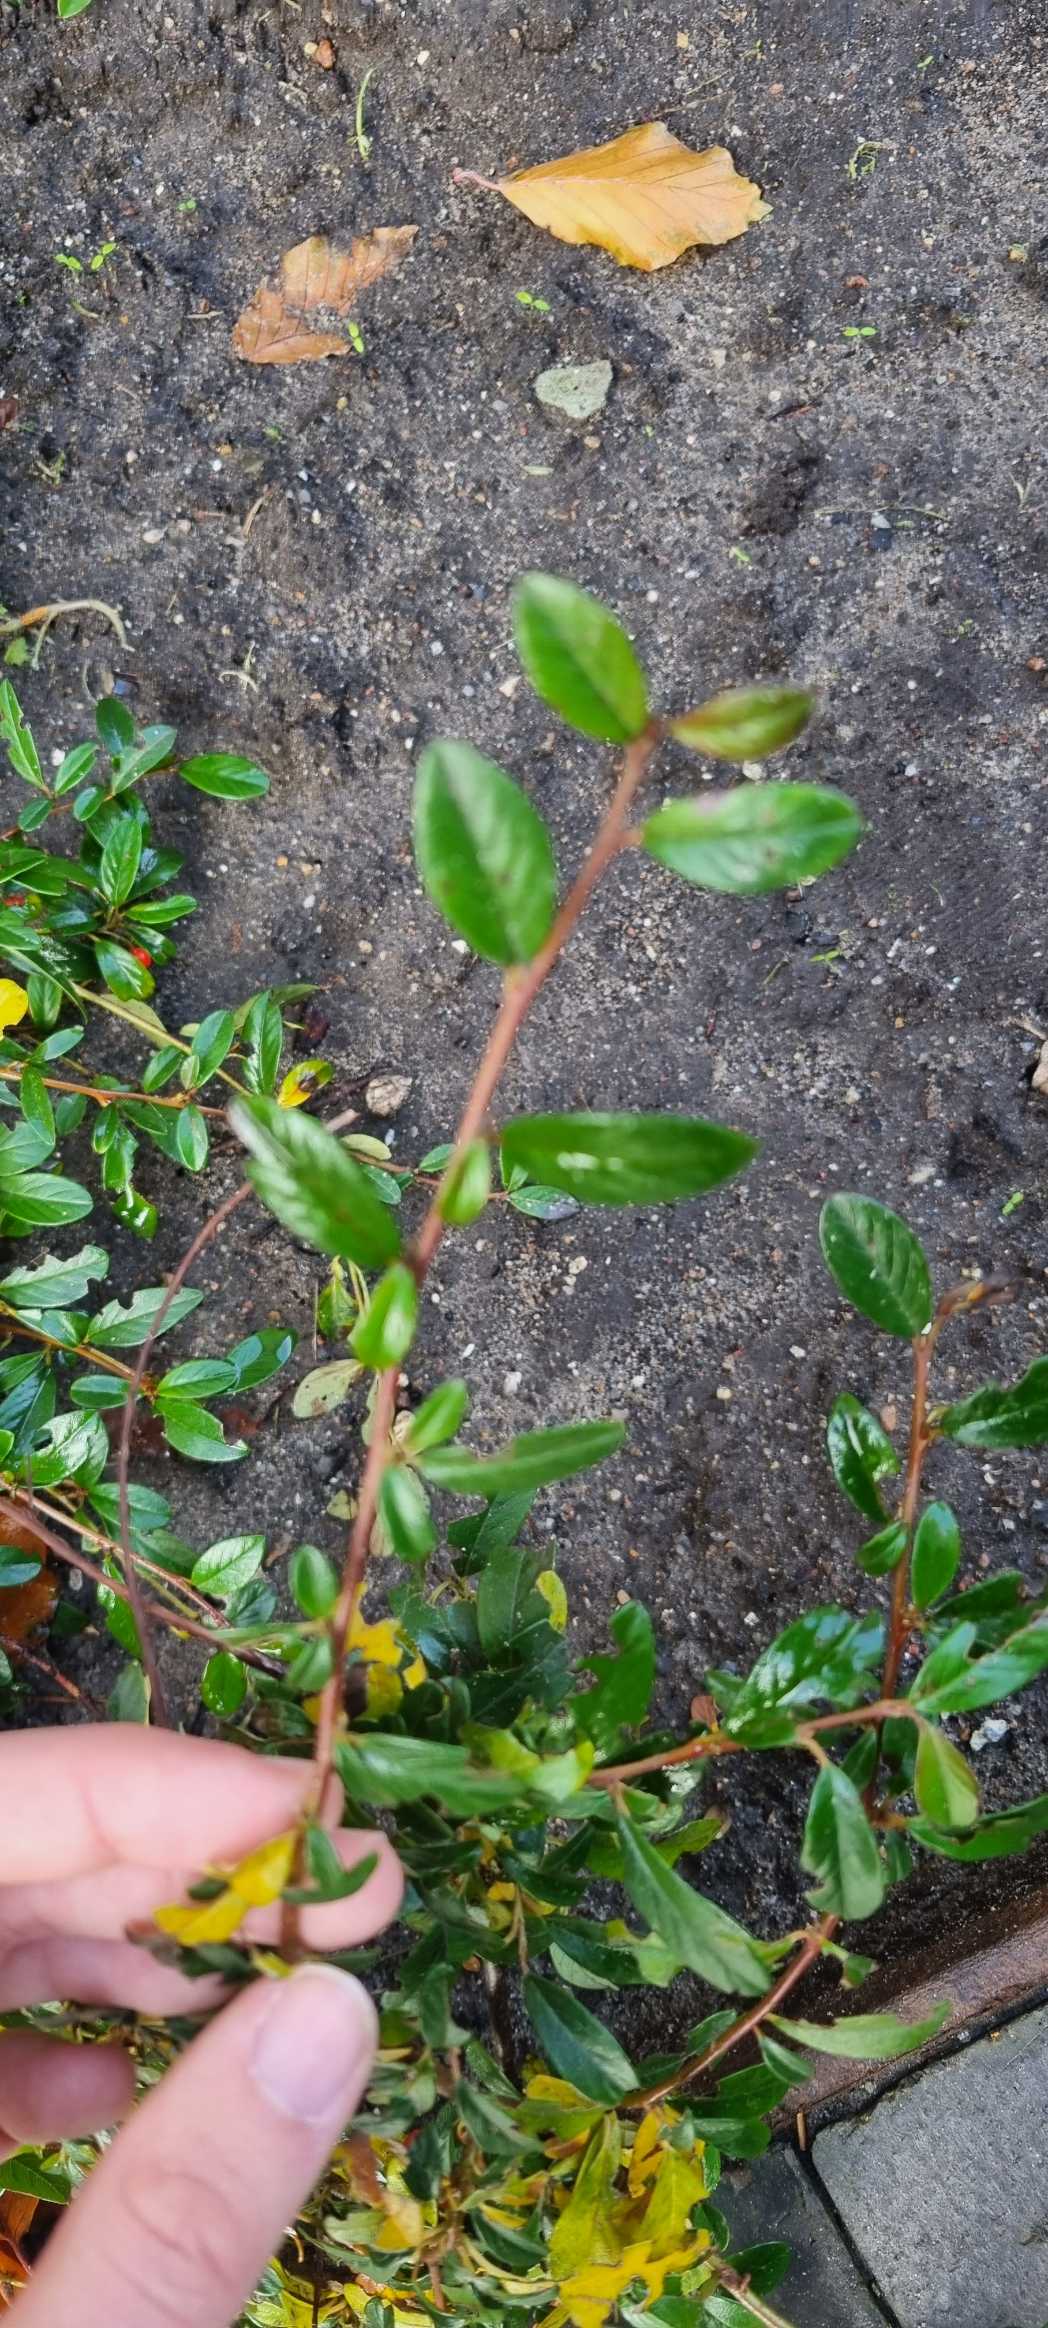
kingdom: Plantae
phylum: Tracheophyta
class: Magnoliopsida
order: Rosales
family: Rosaceae
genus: Cotoneaster
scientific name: Cotoneaster dammeri
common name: Krybende dværgmispel
